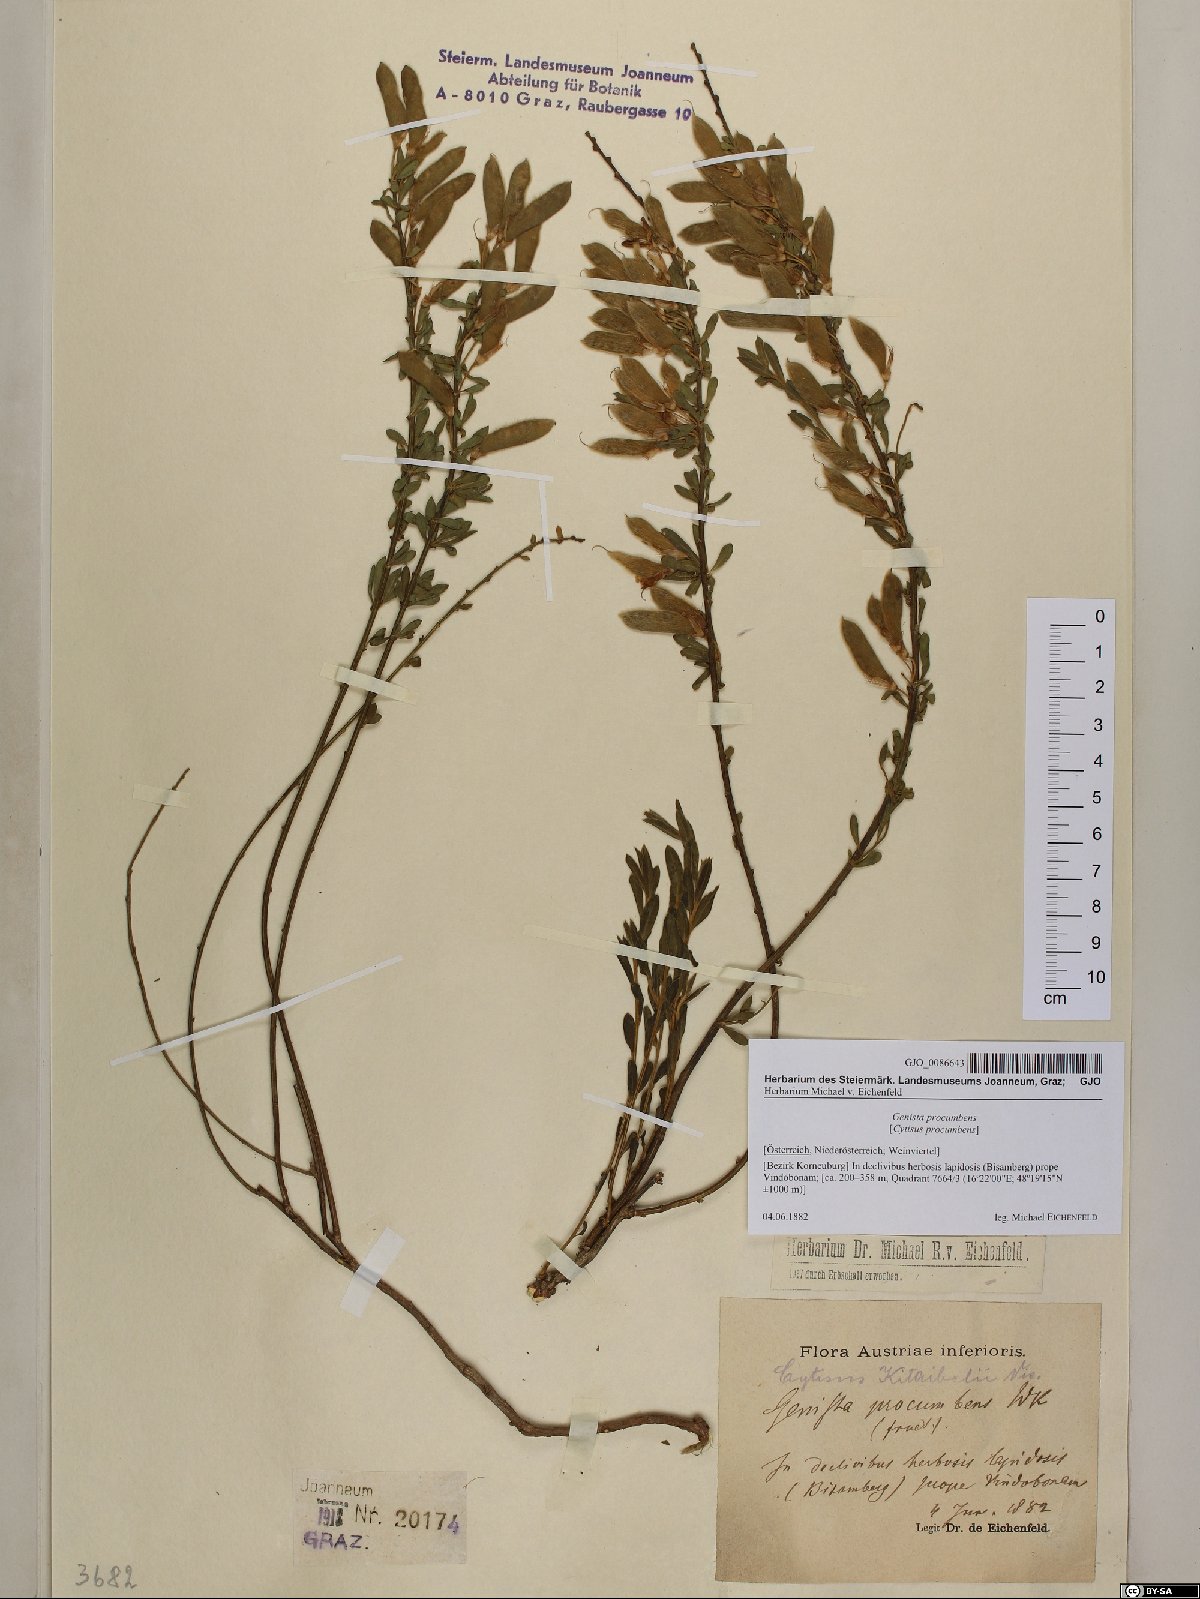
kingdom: Plantae
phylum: Tracheophyta
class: Magnoliopsida
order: Fabales
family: Fabaceae
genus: Cytisus
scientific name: Cytisus procumbens
